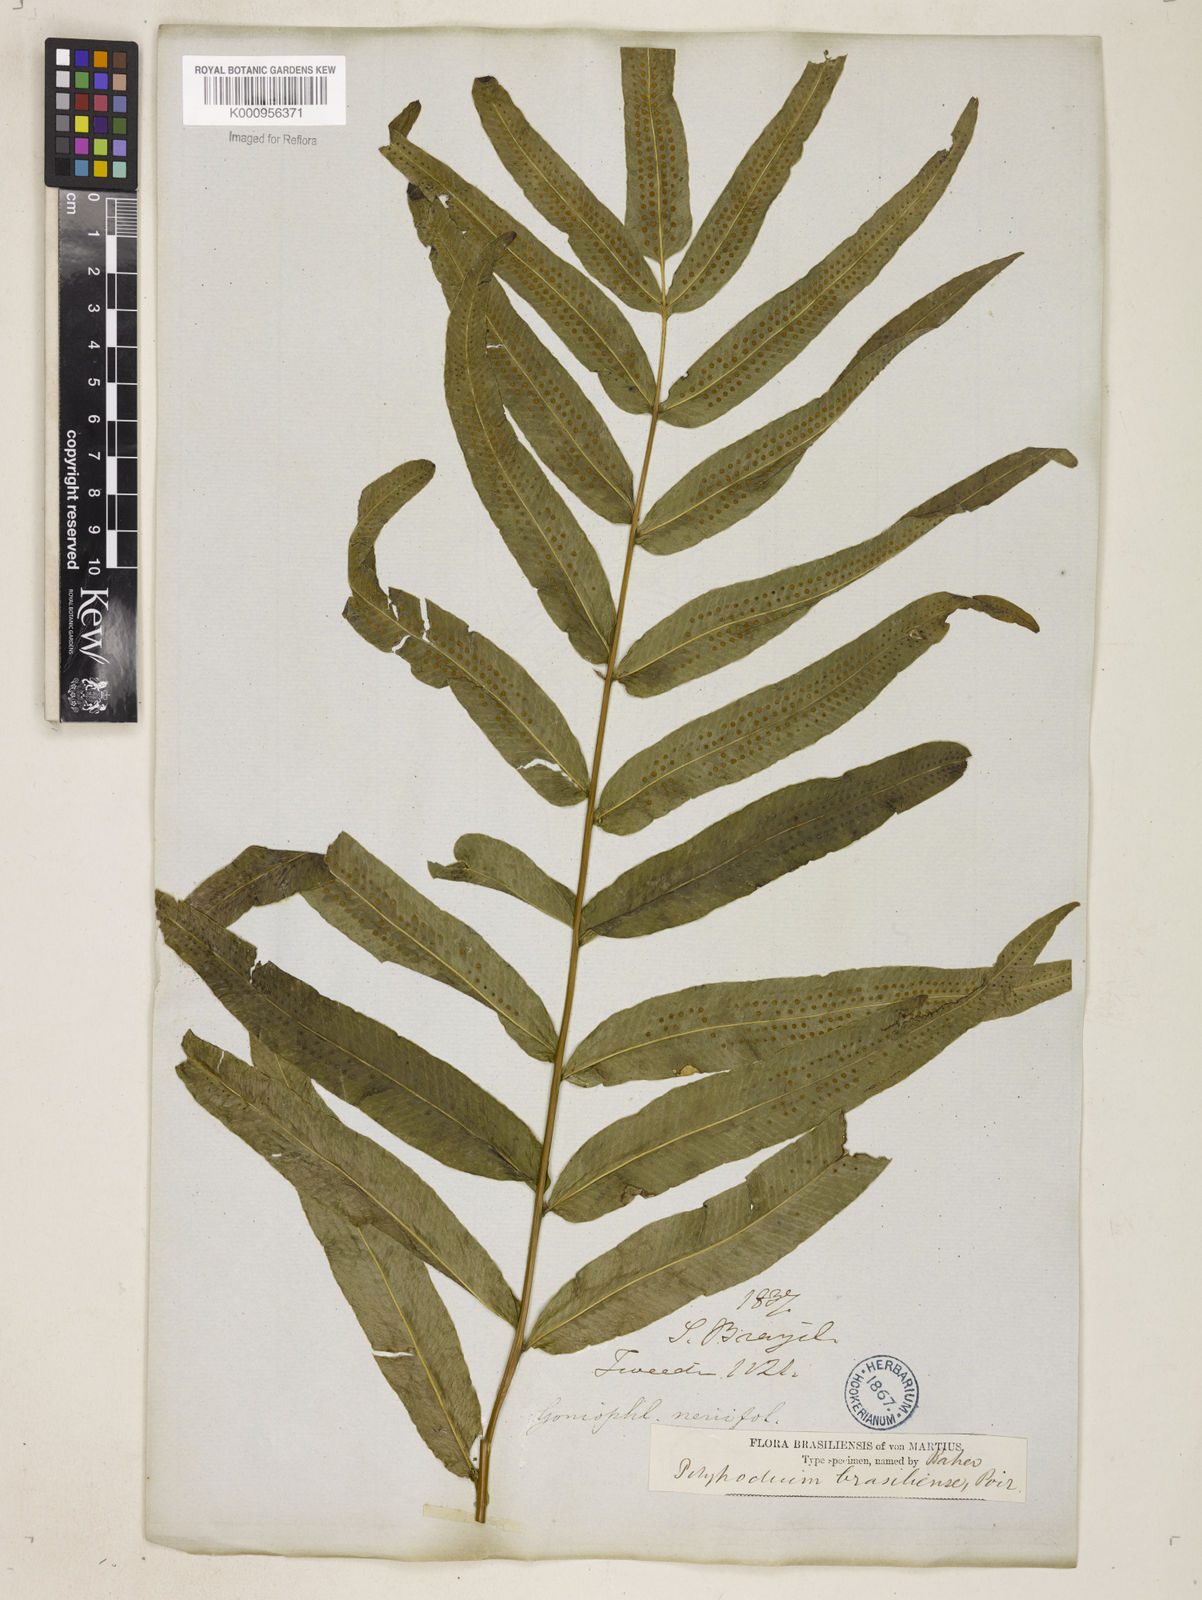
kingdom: Plantae
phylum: Tracheophyta
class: Polypodiopsida
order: Polypodiales
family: Polypodiaceae
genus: Serpocaulon
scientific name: Serpocaulon triseriale
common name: Angle-vein fern
